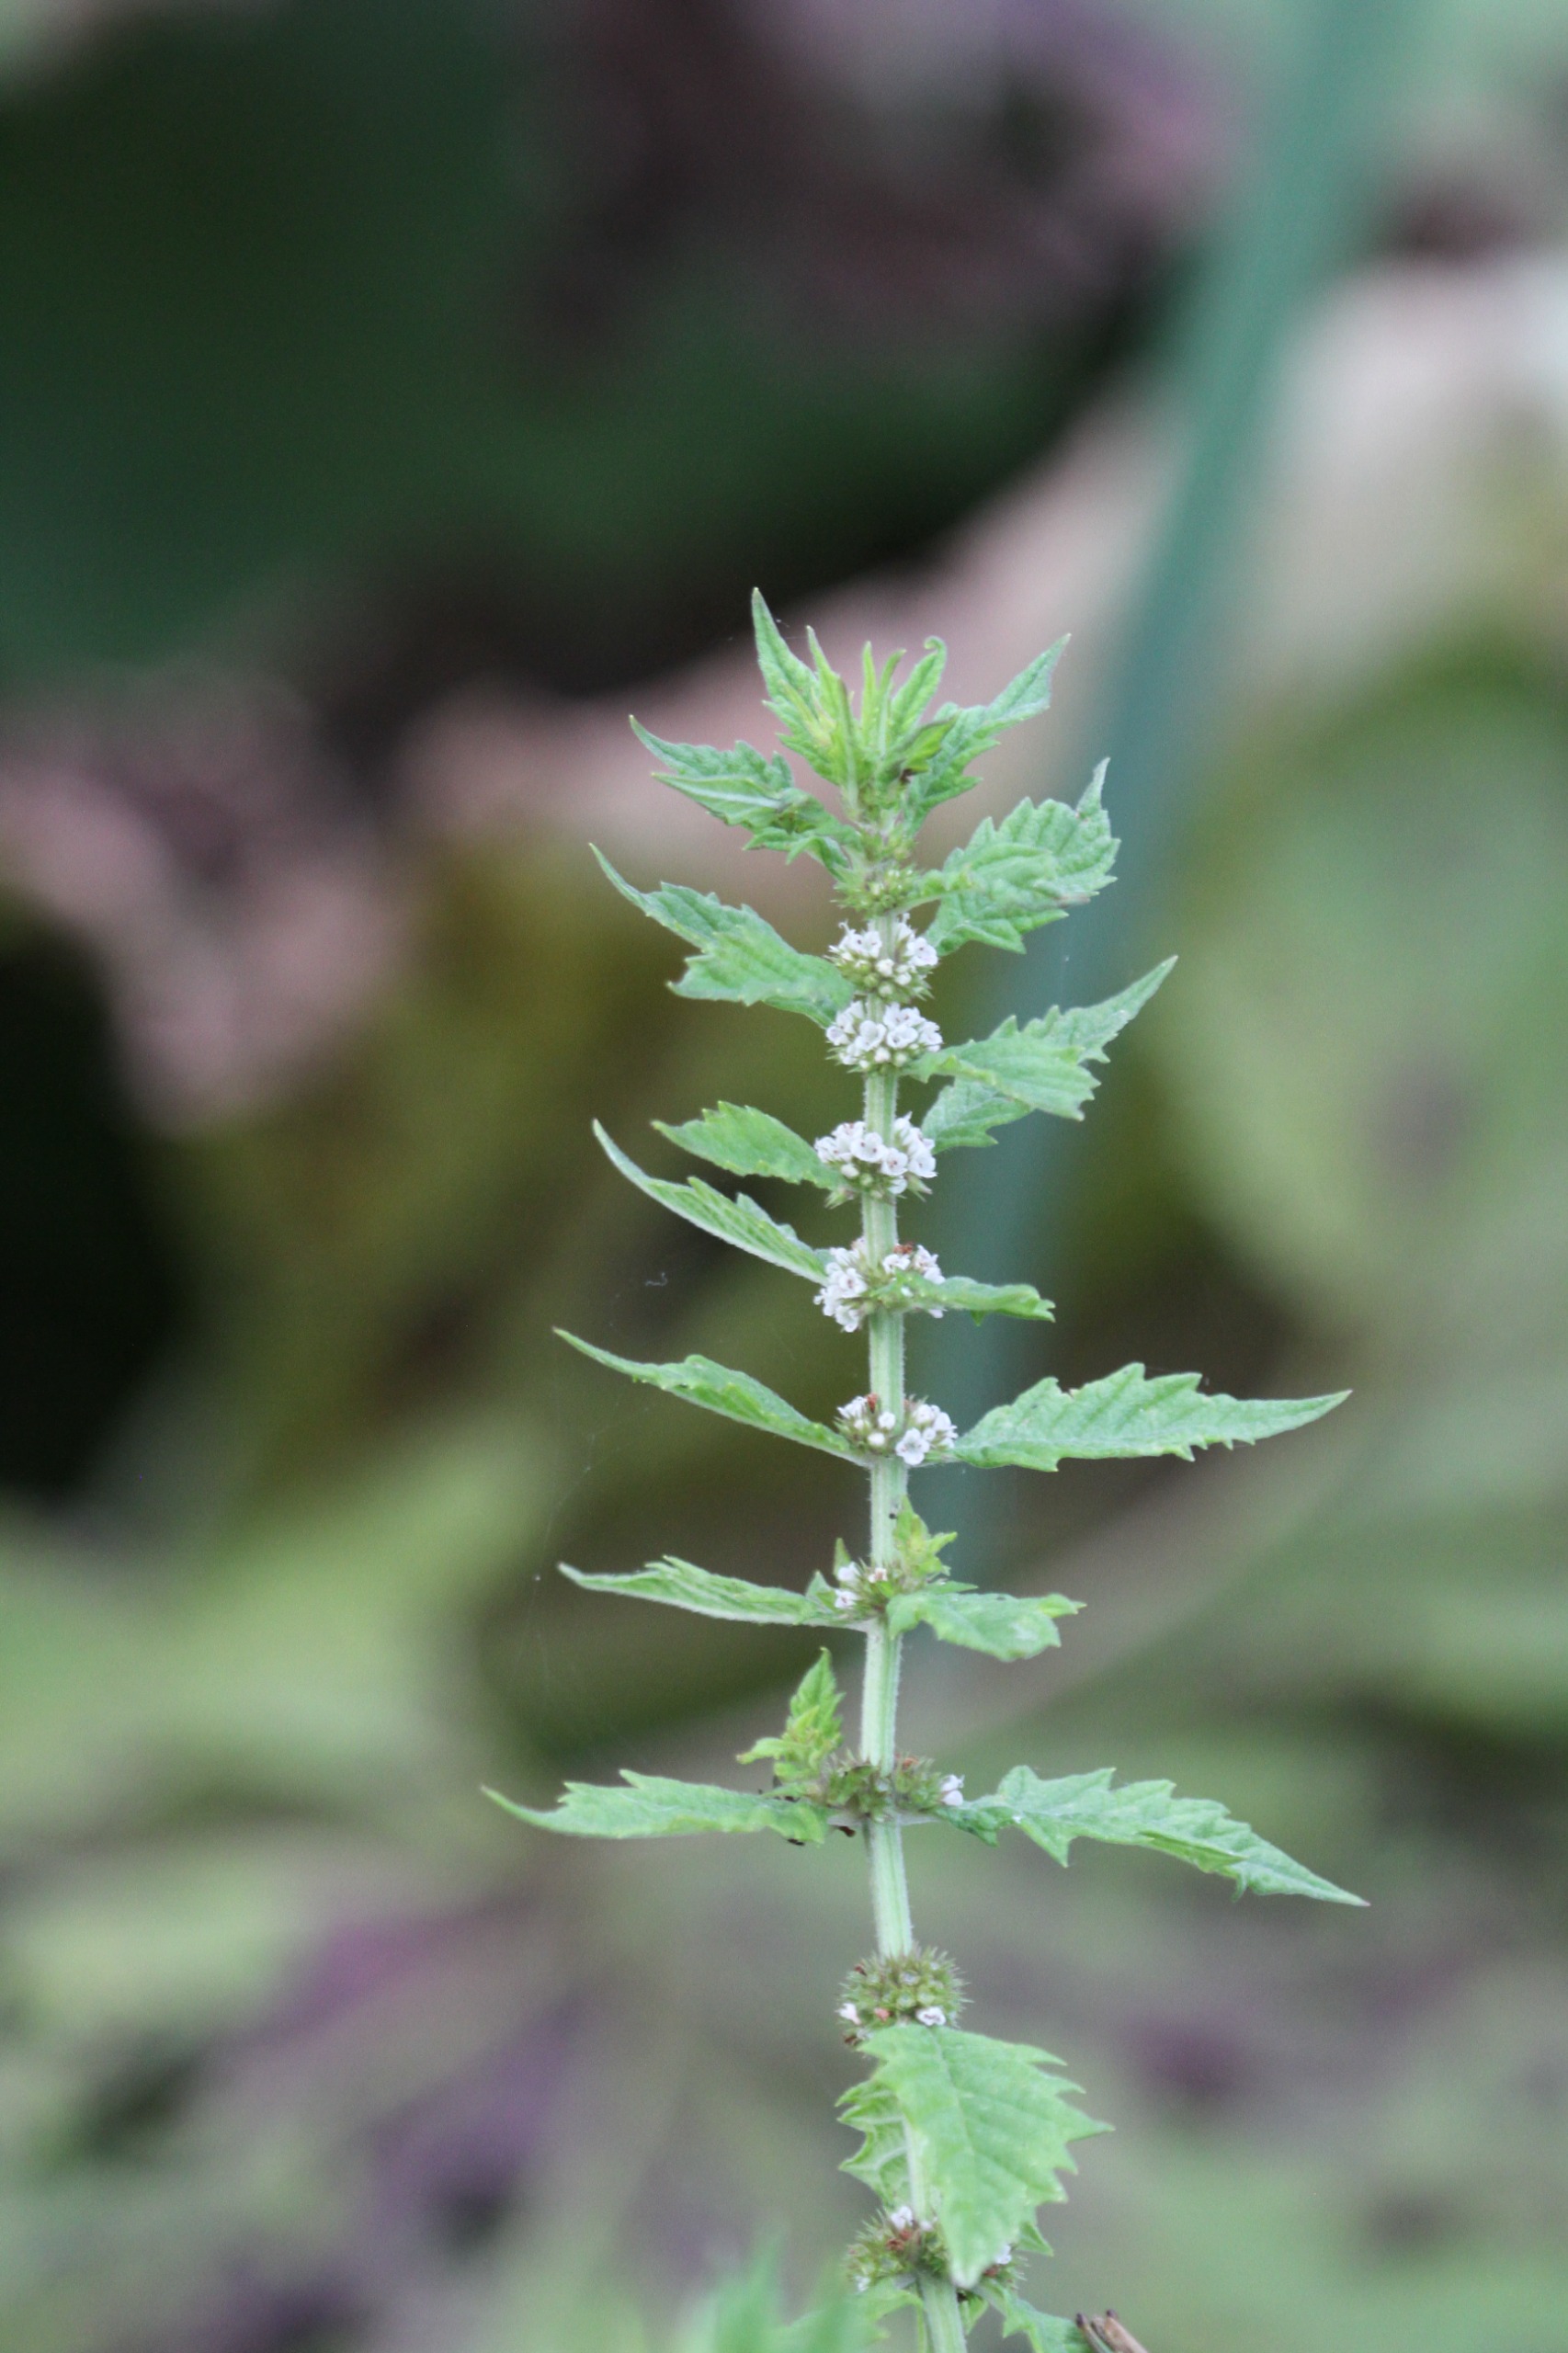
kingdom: Plantae
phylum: Tracheophyta
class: Magnoliopsida
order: Lamiales
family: Lamiaceae
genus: Lycopus
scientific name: Lycopus europaeus
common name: Sværtevæld
